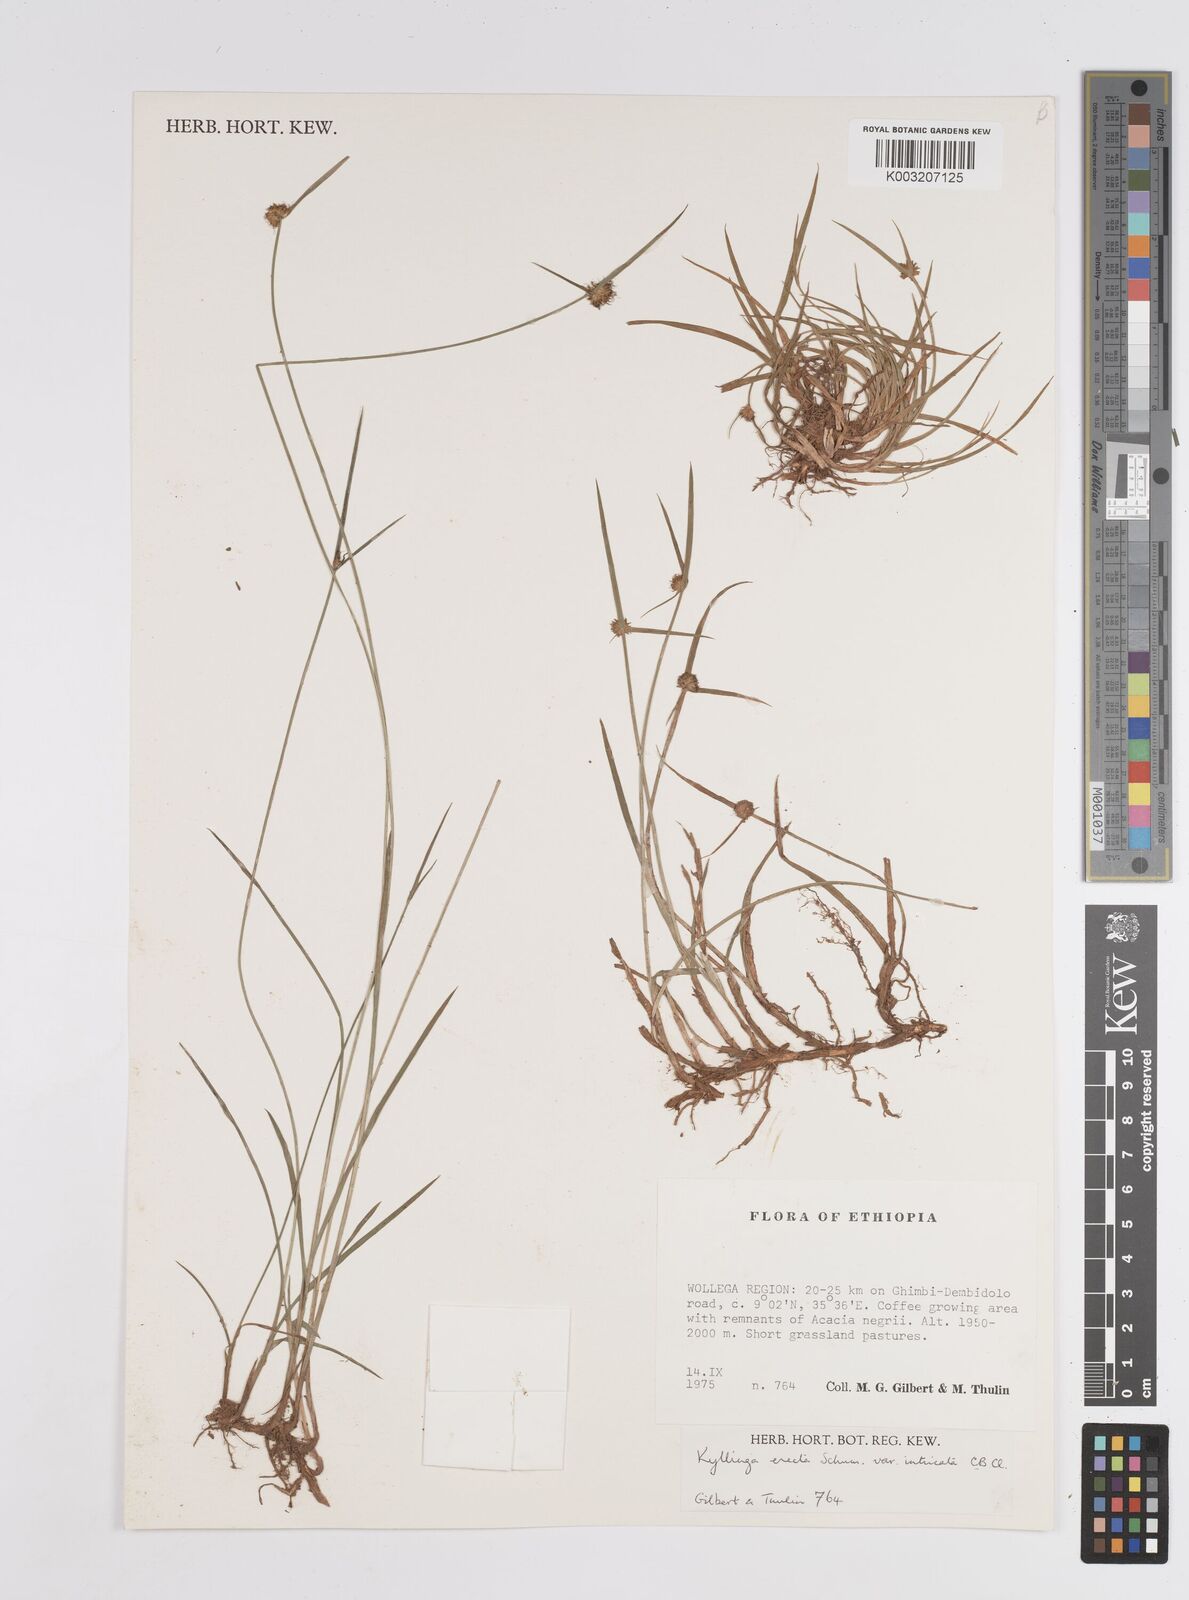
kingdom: Plantae
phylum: Tracheophyta
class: Liliopsida
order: Poales
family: Cyperaceae
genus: Cyperus
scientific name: Cyperus
